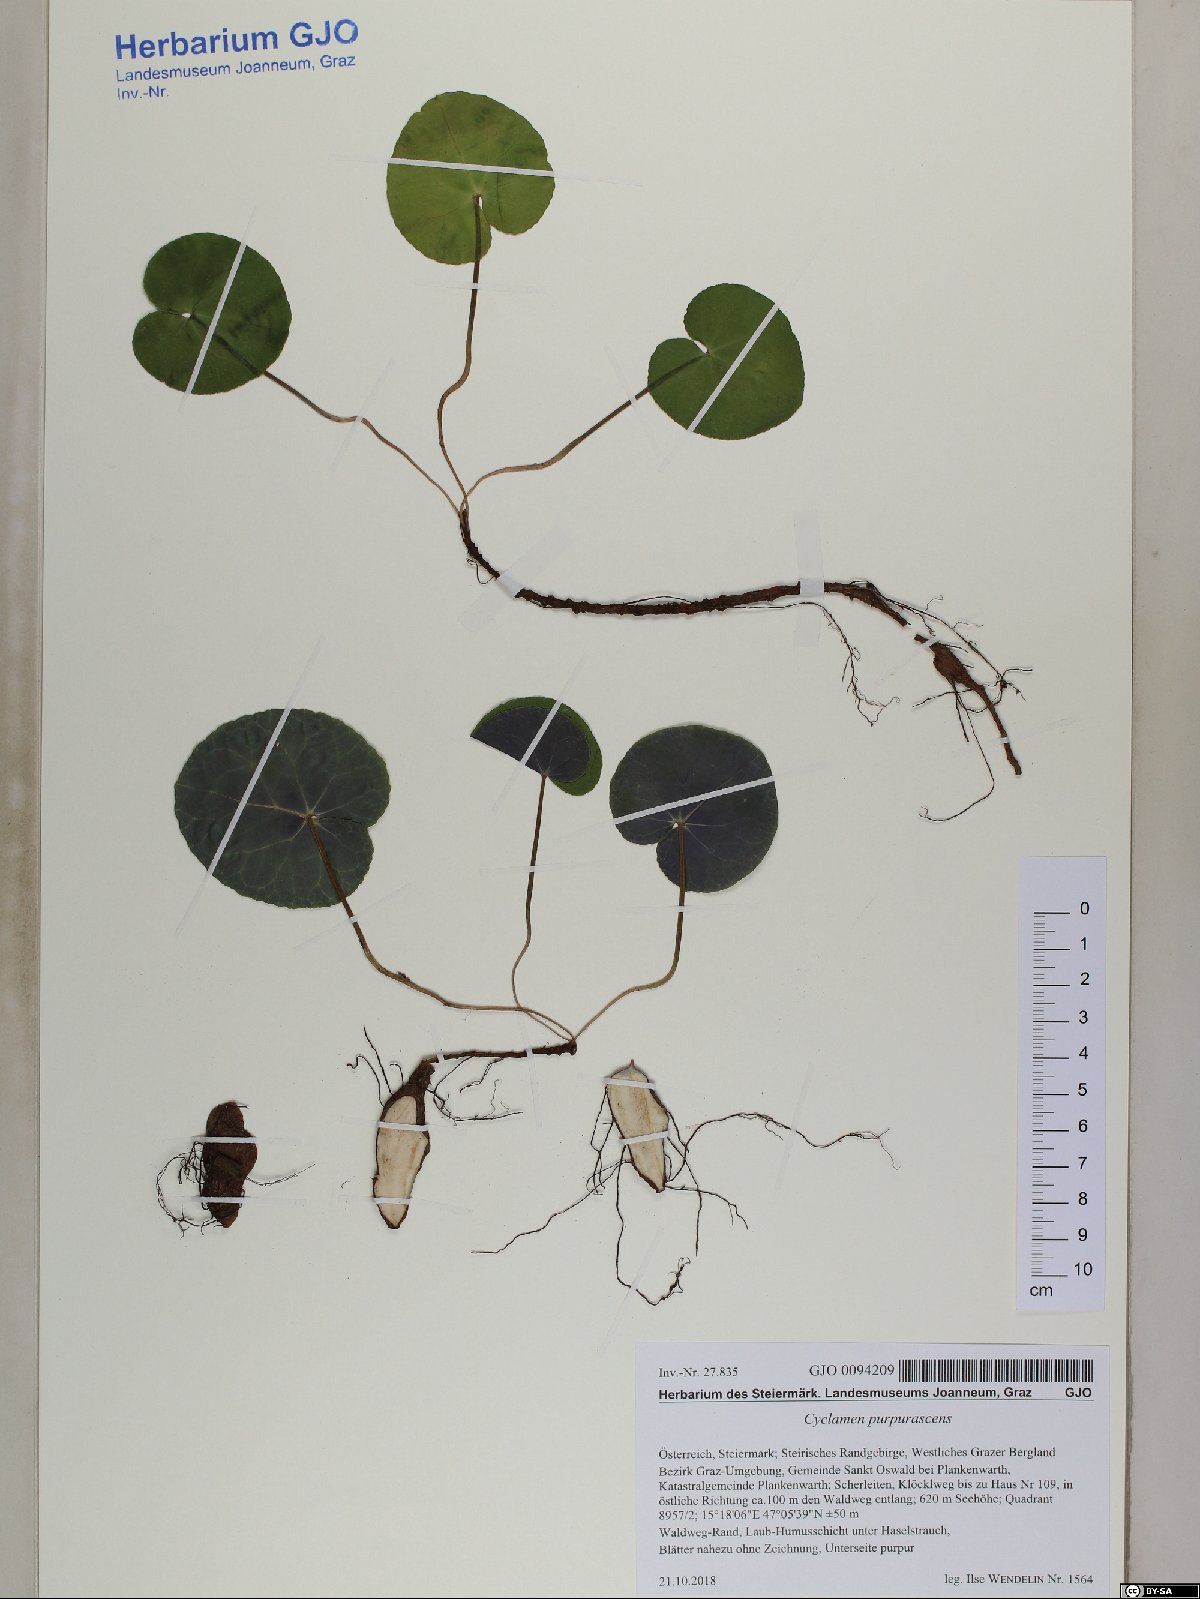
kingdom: Plantae
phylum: Tracheophyta
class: Magnoliopsida
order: Ericales
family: Primulaceae
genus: Cyclamen
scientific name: Cyclamen purpurascens
